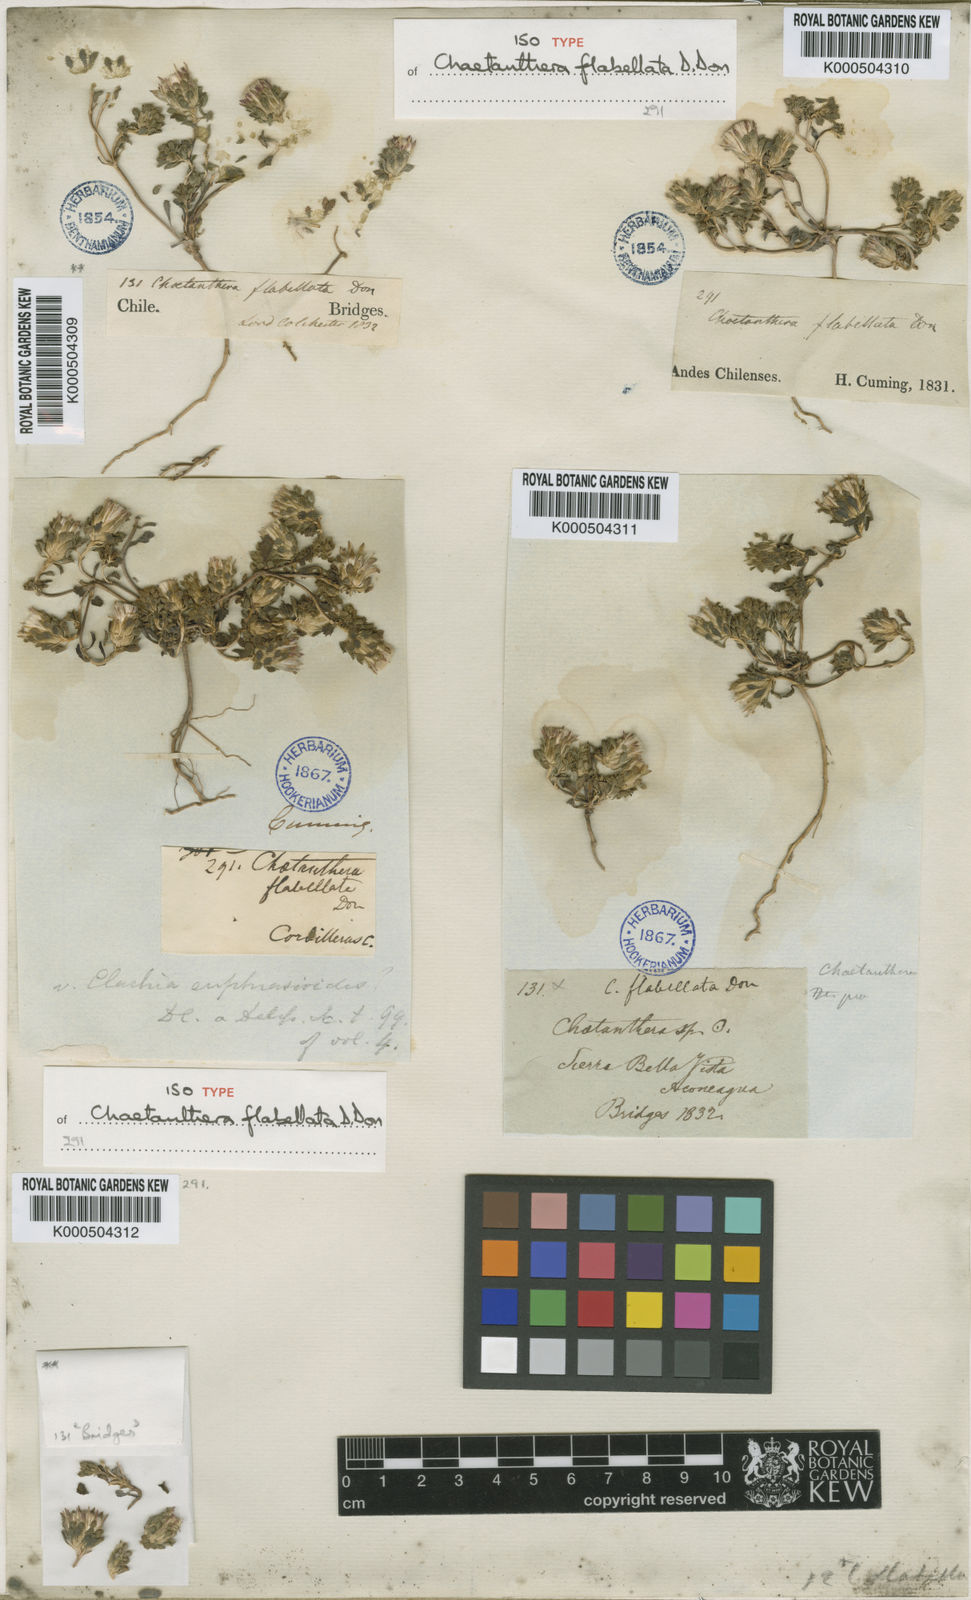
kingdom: Plantae
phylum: Tracheophyta
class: Magnoliopsida
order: Asterales
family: Asteraceae
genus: Chaetanthera
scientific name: Chaetanthera flabellata
